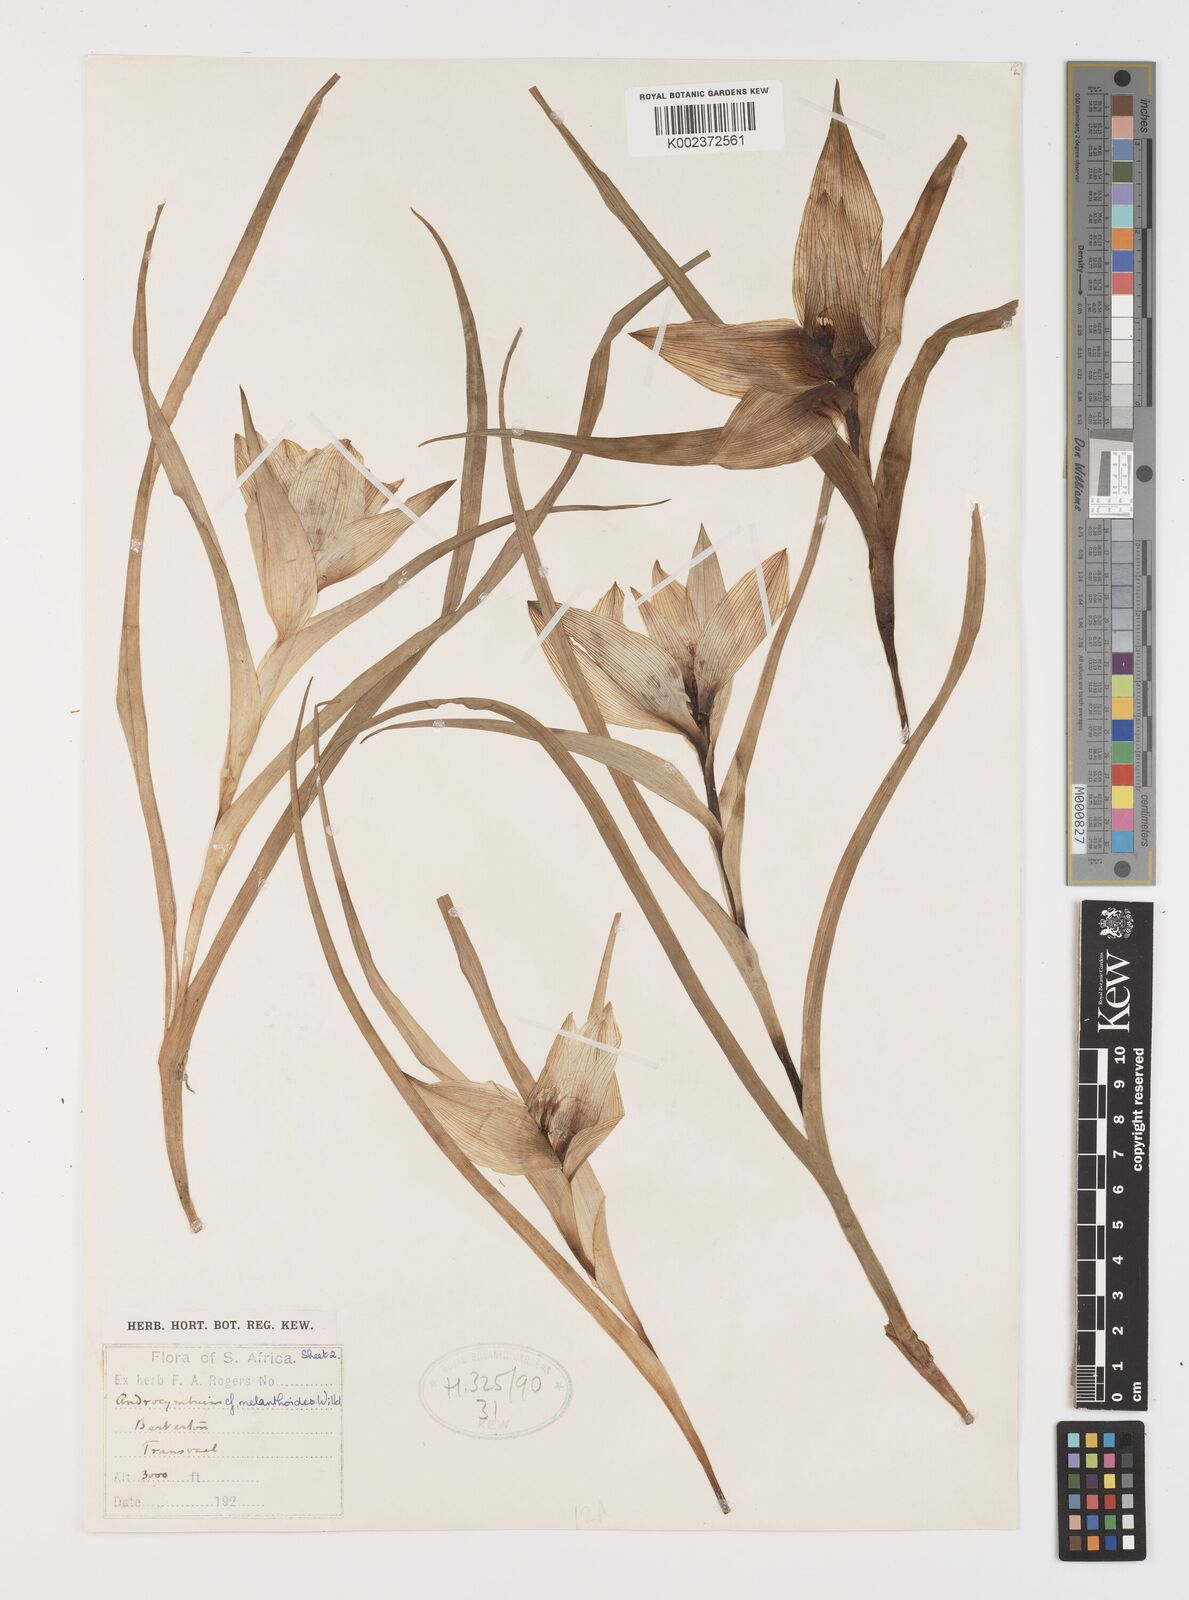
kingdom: Plantae
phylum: Tracheophyta
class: Liliopsida
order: Liliales
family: Colchicaceae
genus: Colchicum
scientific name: Colchicum melanthioides
